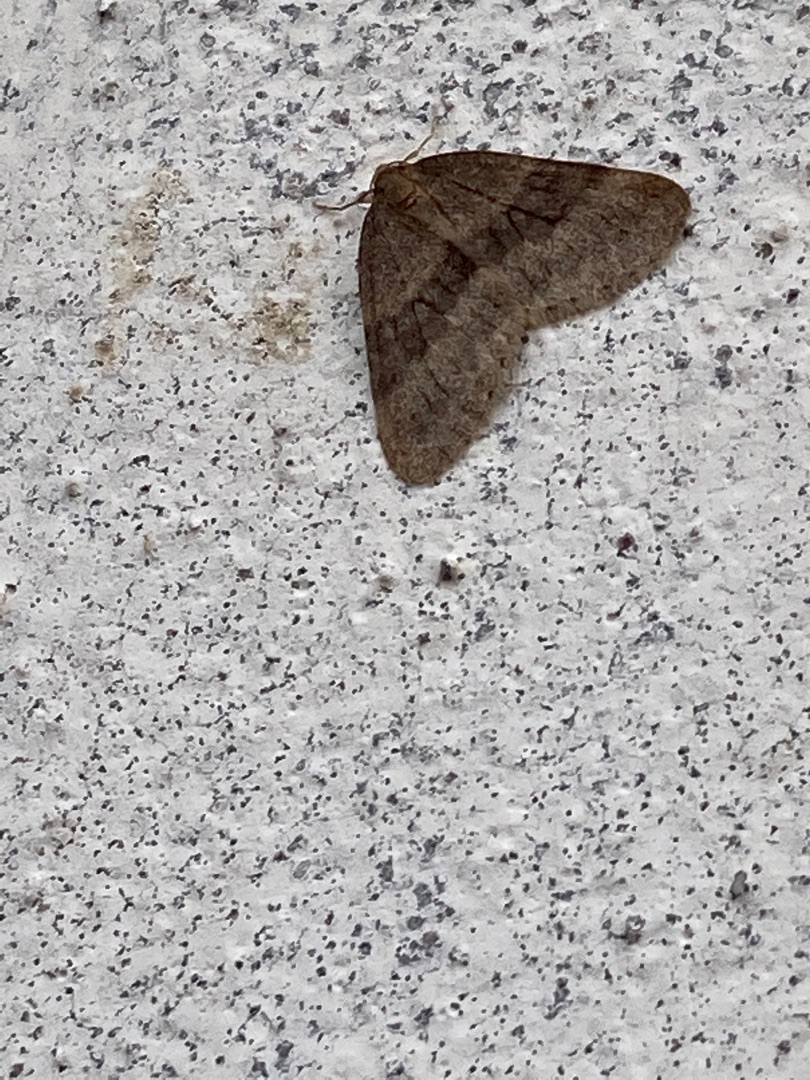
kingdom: Animalia
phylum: Arthropoda
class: Insecta
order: Lepidoptera
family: Geometridae
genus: Operophtera
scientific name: Operophtera brumata
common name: Lille frostmåler
